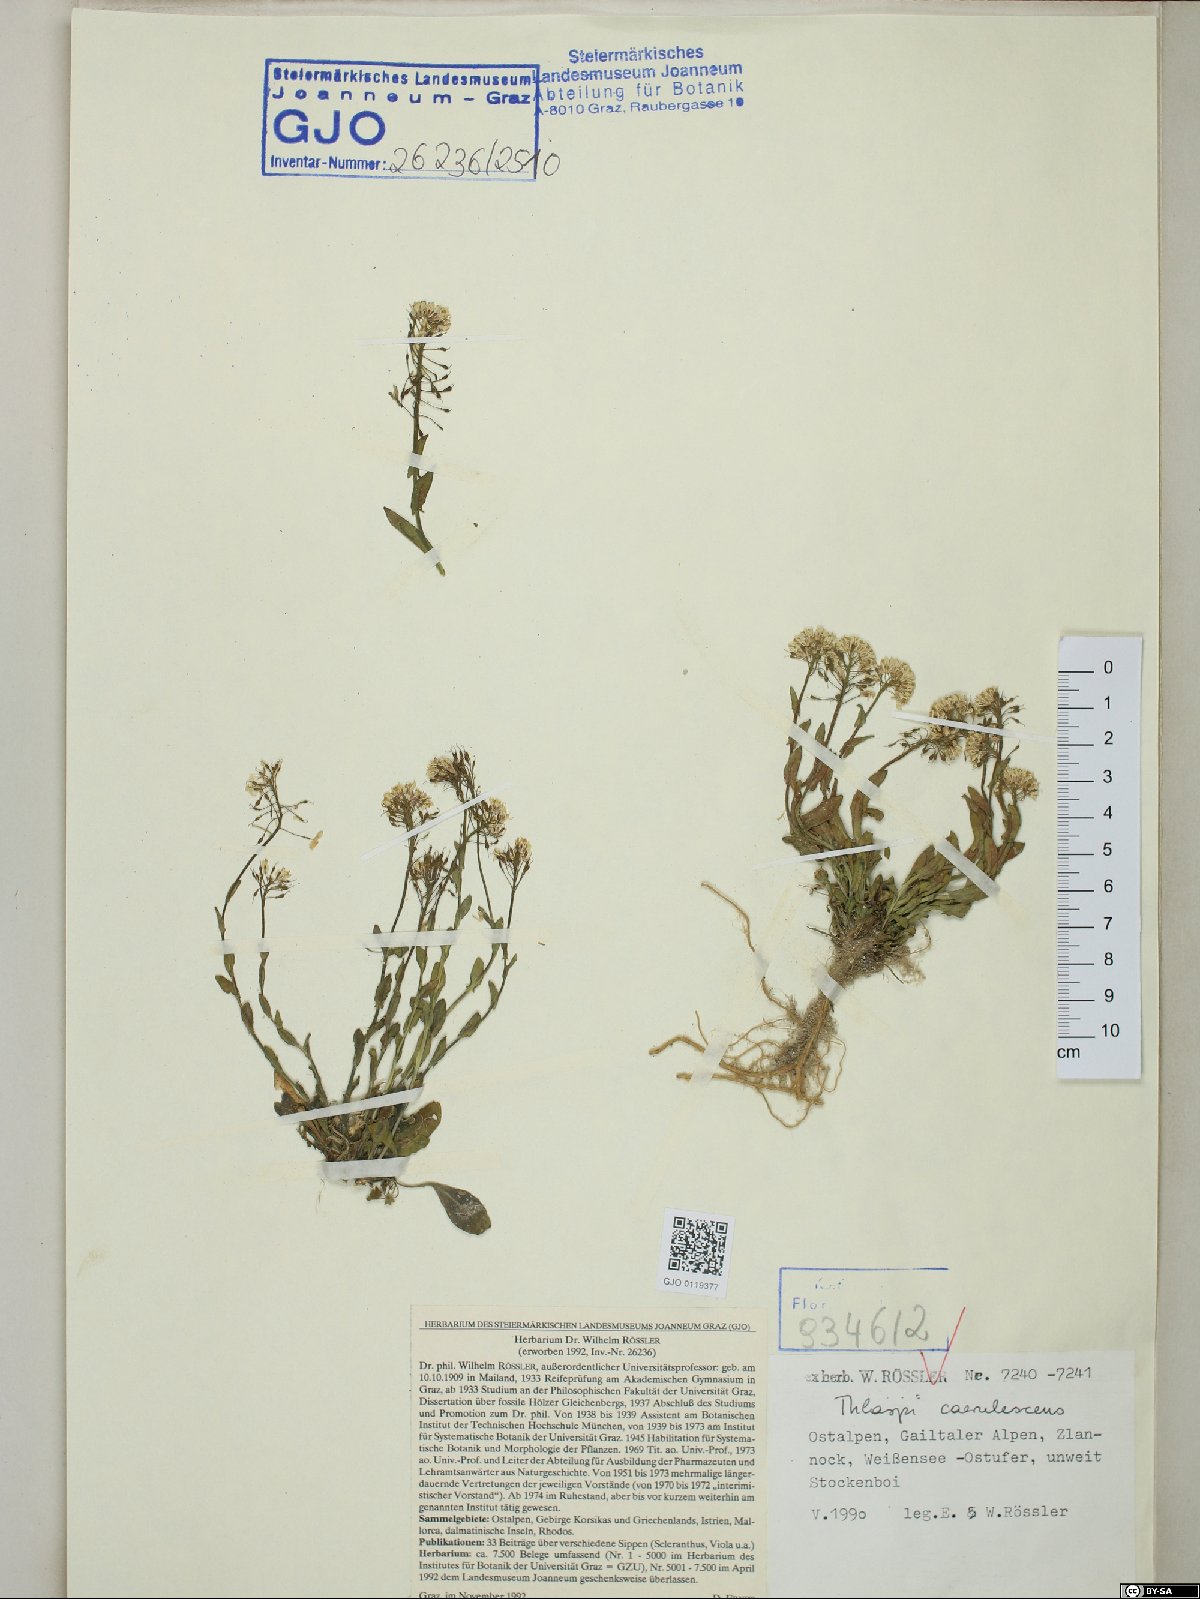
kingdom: Plantae
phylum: Tracheophyta
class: Magnoliopsida
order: Brassicales
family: Brassicaceae
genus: Noccaea
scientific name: Noccaea caerulescens
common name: Alpine pennycress
